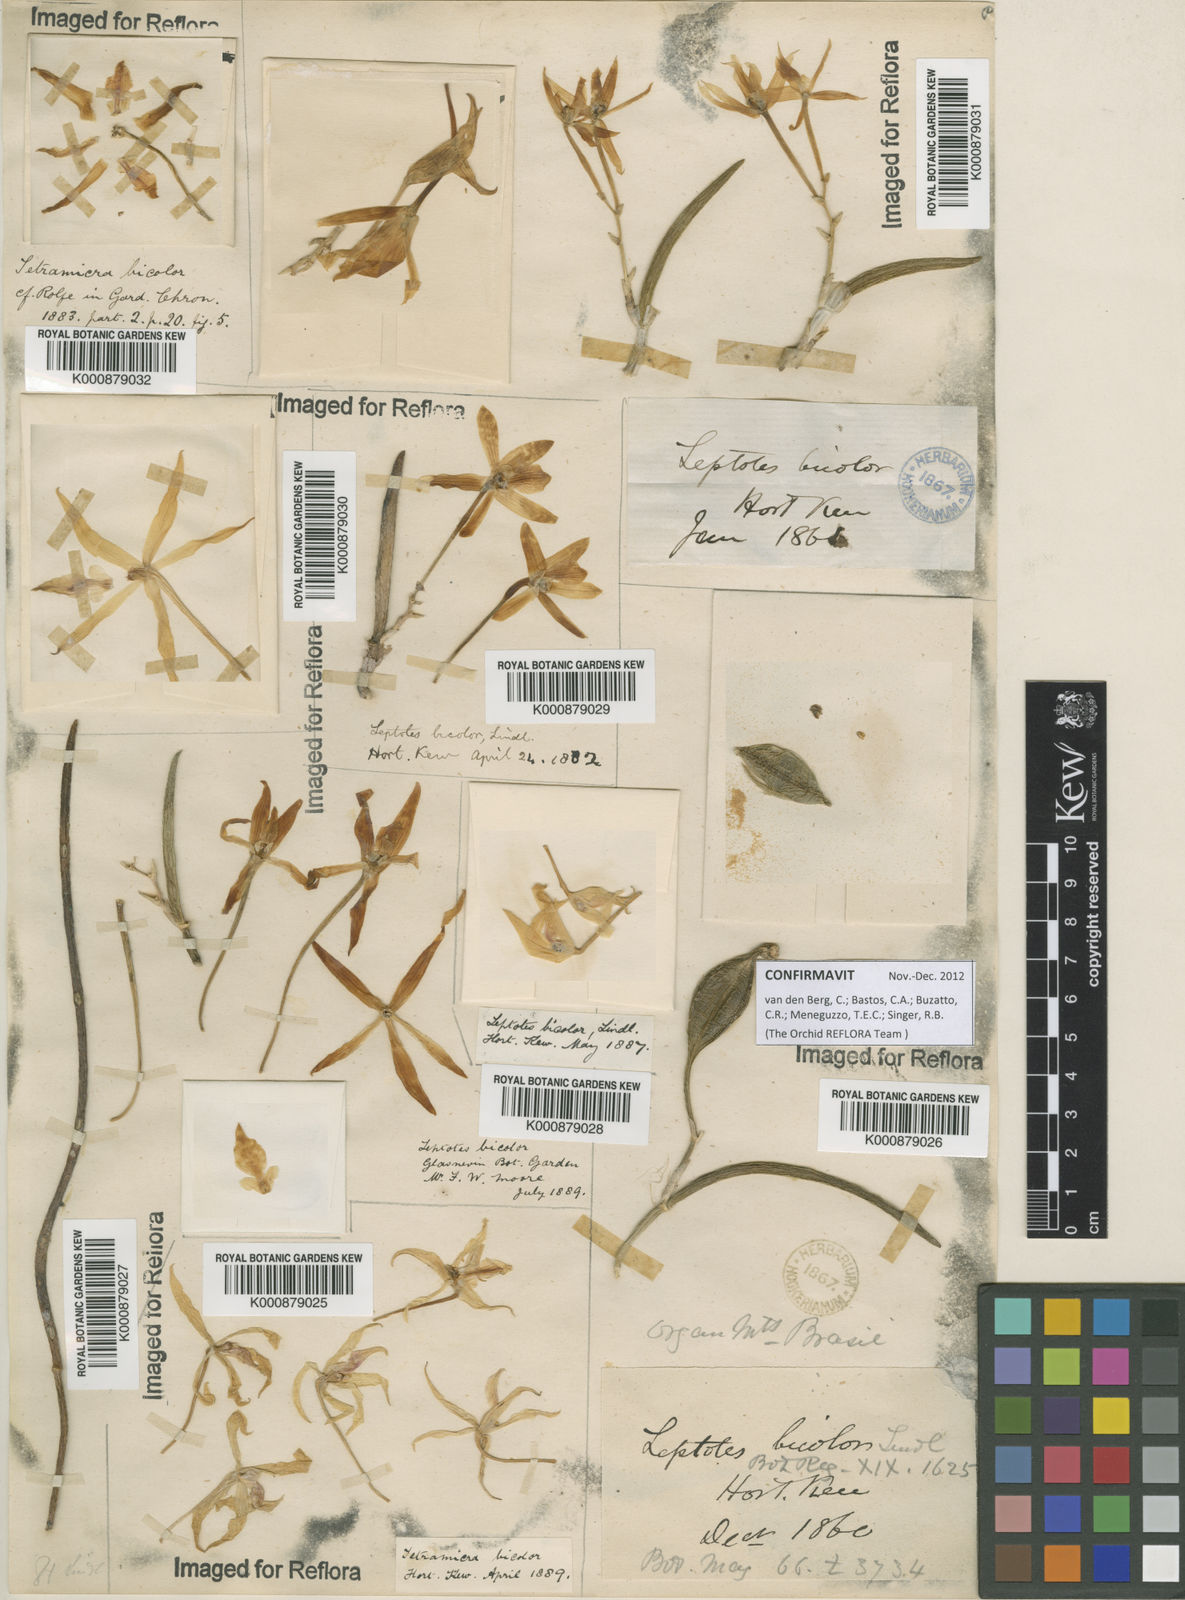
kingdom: Plantae
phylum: Tracheophyta
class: Liliopsida
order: Asparagales
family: Orchidaceae
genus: Leptotes
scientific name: Leptotes bicolor
